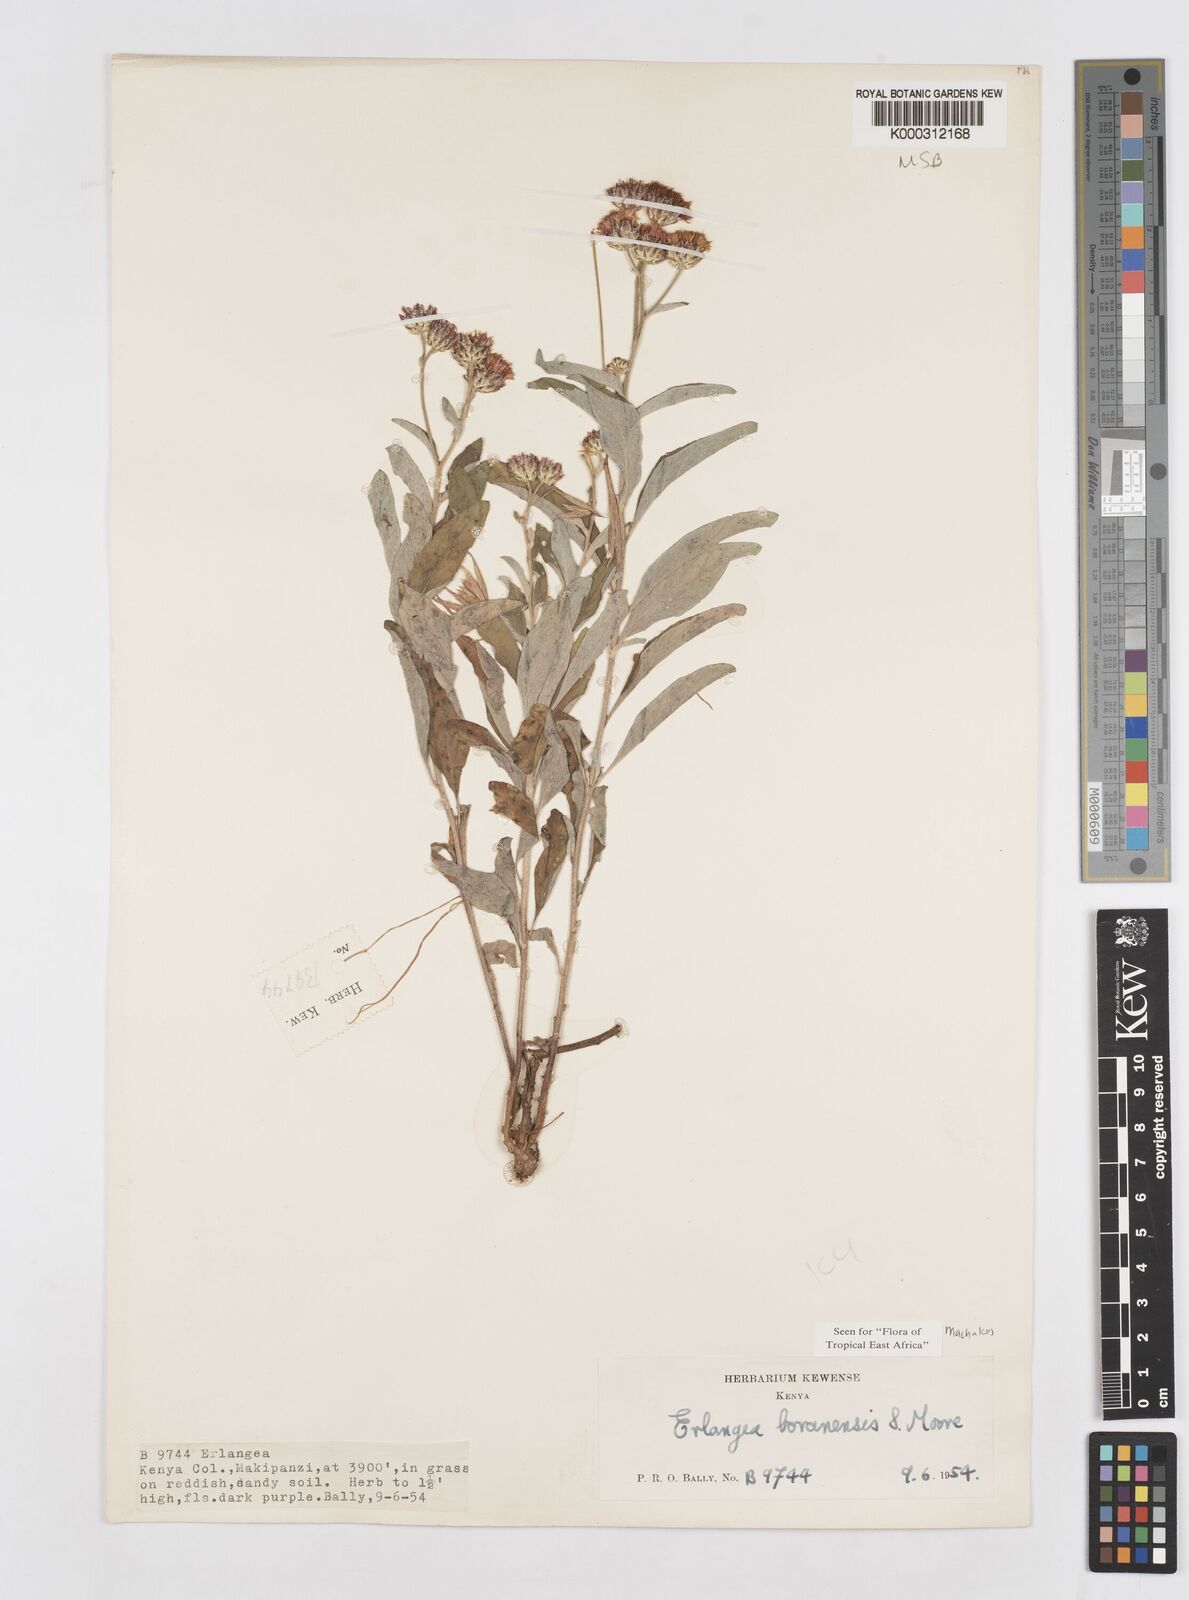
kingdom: Plantae
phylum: Tracheophyta
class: Magnoliopsida
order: Asterales
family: Asteraceae
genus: Gutenbergia
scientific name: Gutenbergia boranensis
